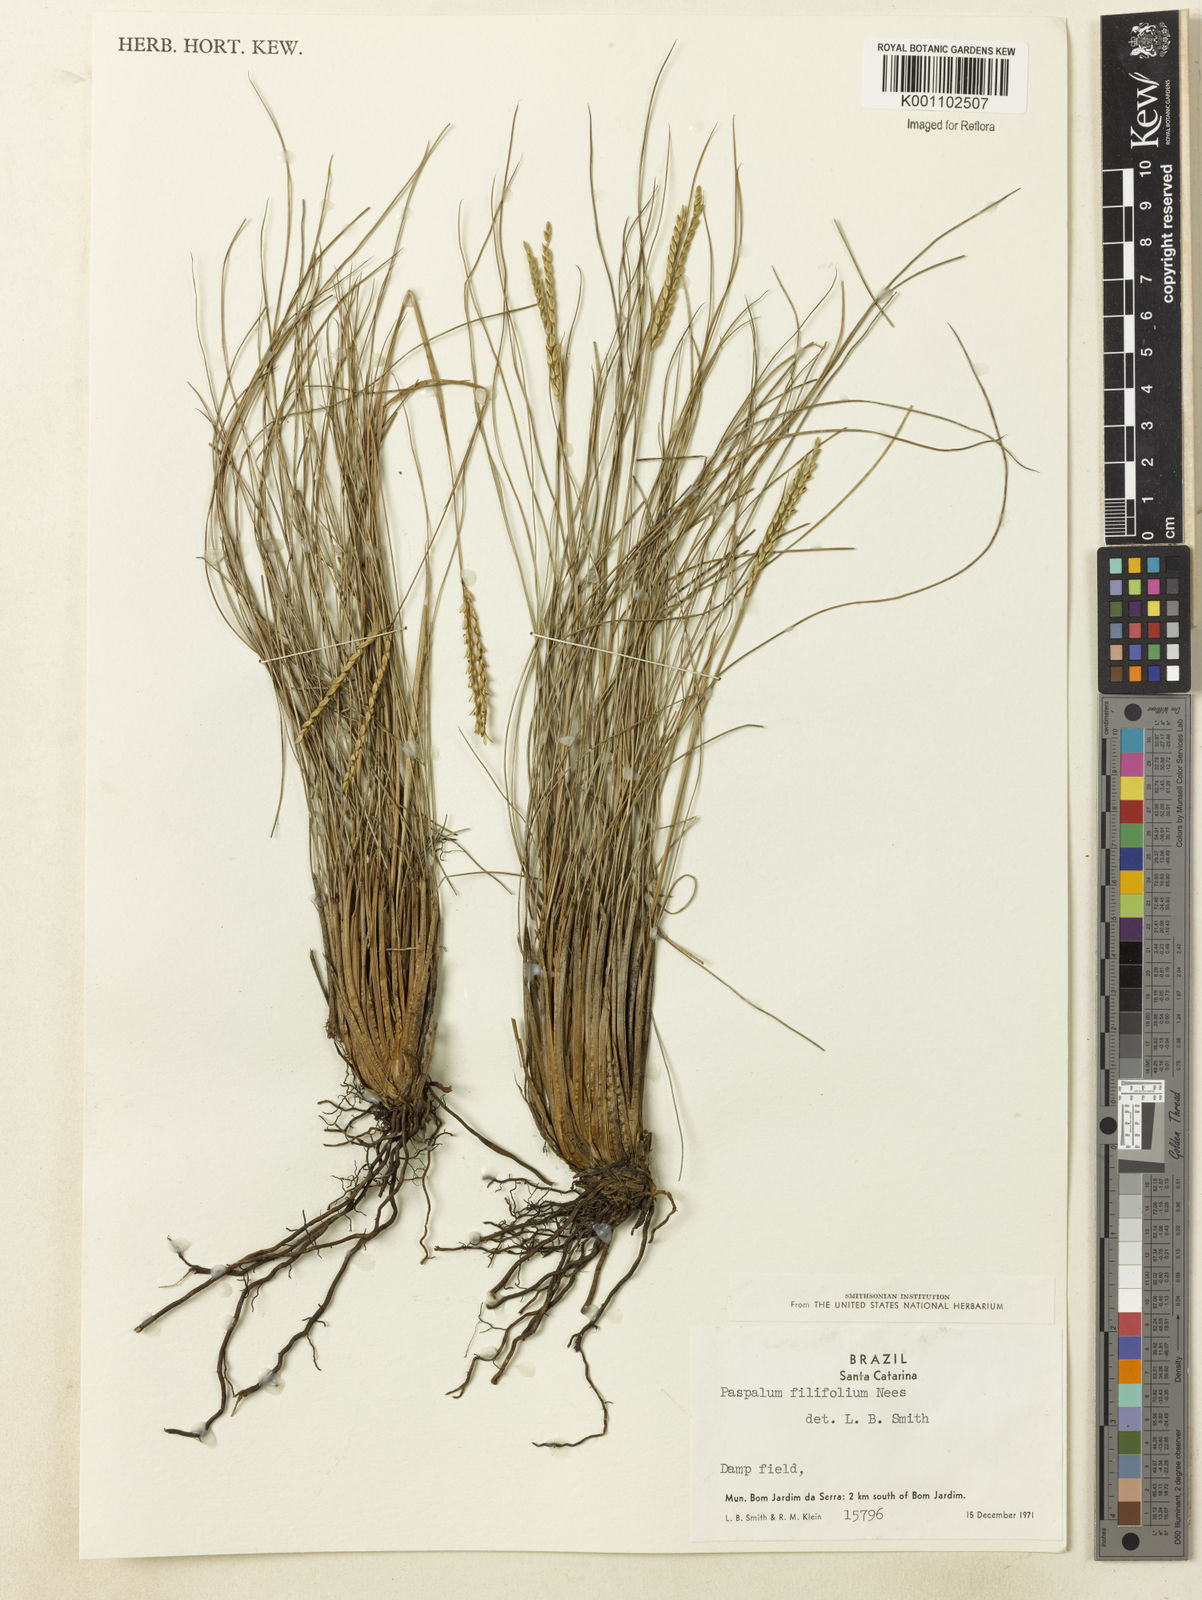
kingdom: Plantae
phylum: Tracheophyta
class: Liliopsida
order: Poales
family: Poaceae
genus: Paspalum
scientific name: Paspalum filifolium
